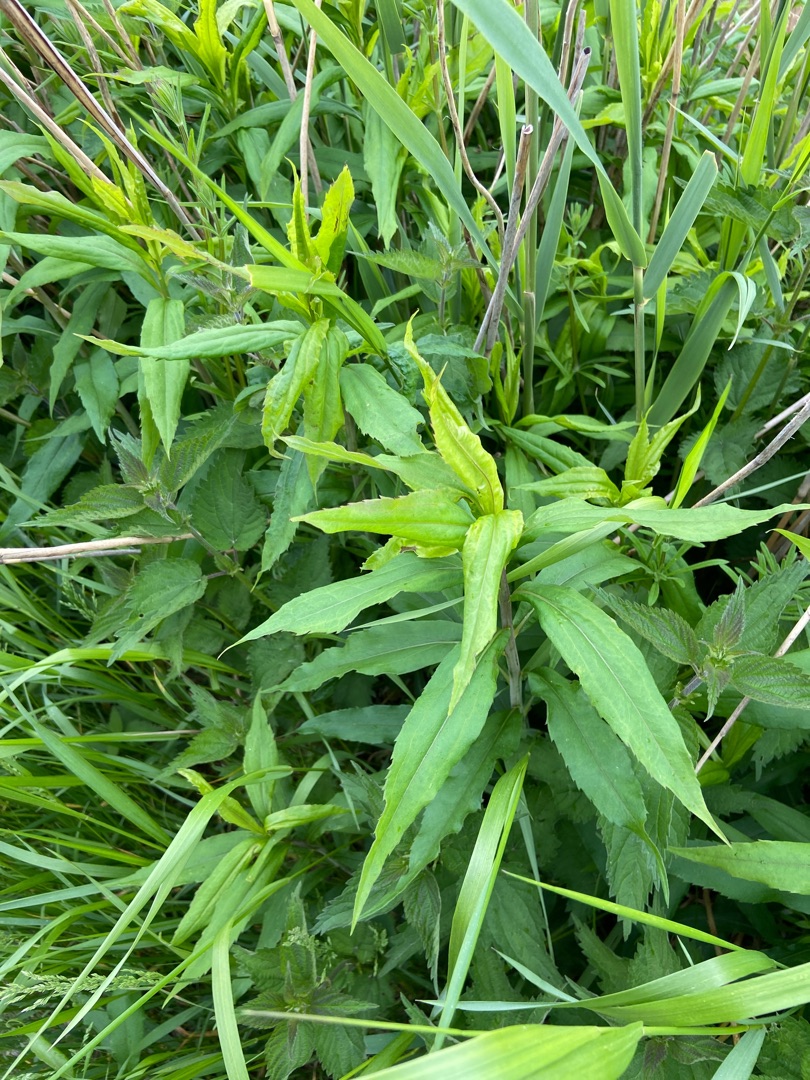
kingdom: Plantae
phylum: Tracheophyta
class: Magnoliopsida
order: Asterales
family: Asteraceae
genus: Solidago
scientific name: Solidago gigantea
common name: Sildig gyldenris
